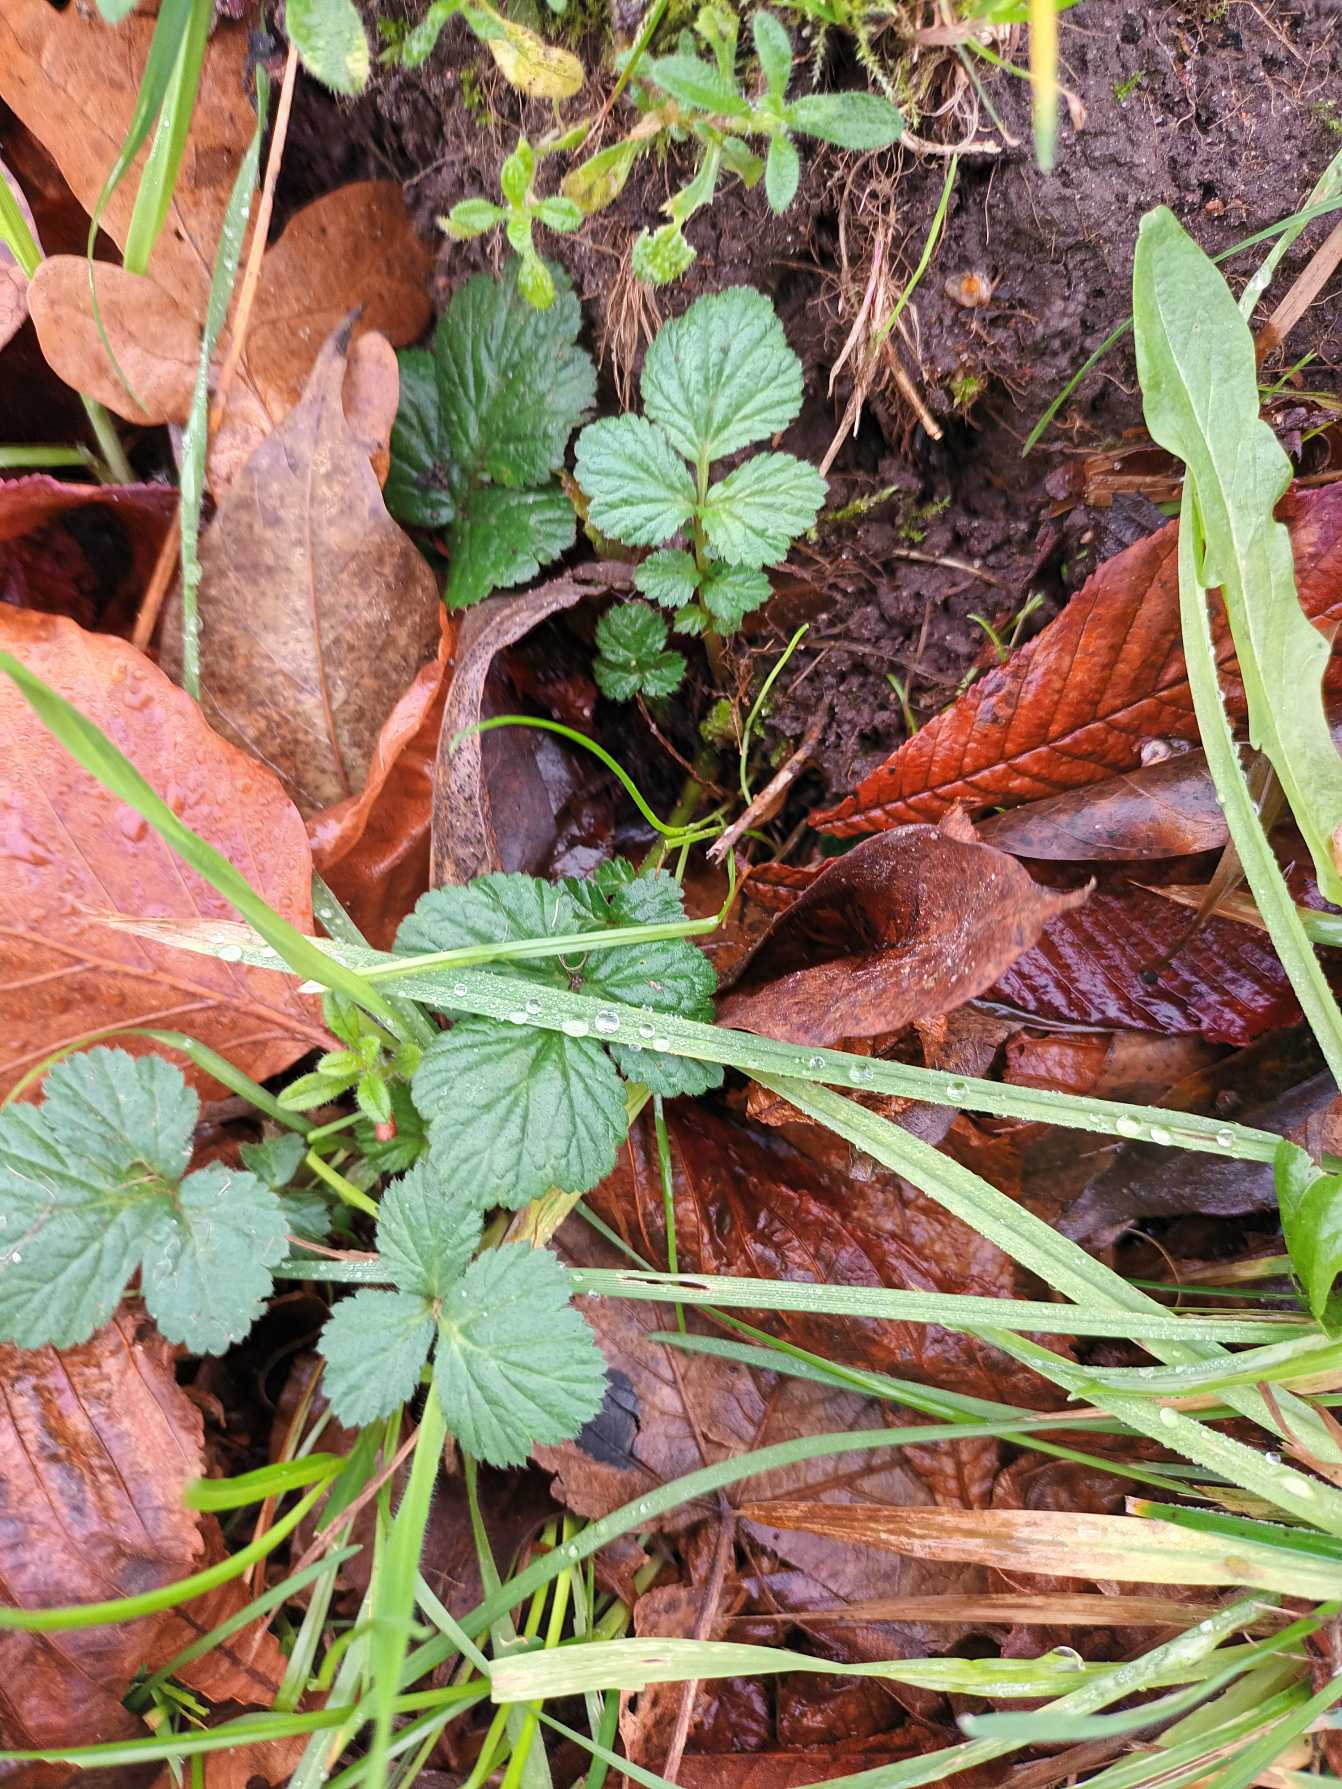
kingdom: Plantae
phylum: Tracheophyta
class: Magnoliopsida
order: Rosales
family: Rosaceae
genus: Geum
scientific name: Geum urbanum
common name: Feber-nellikerod
